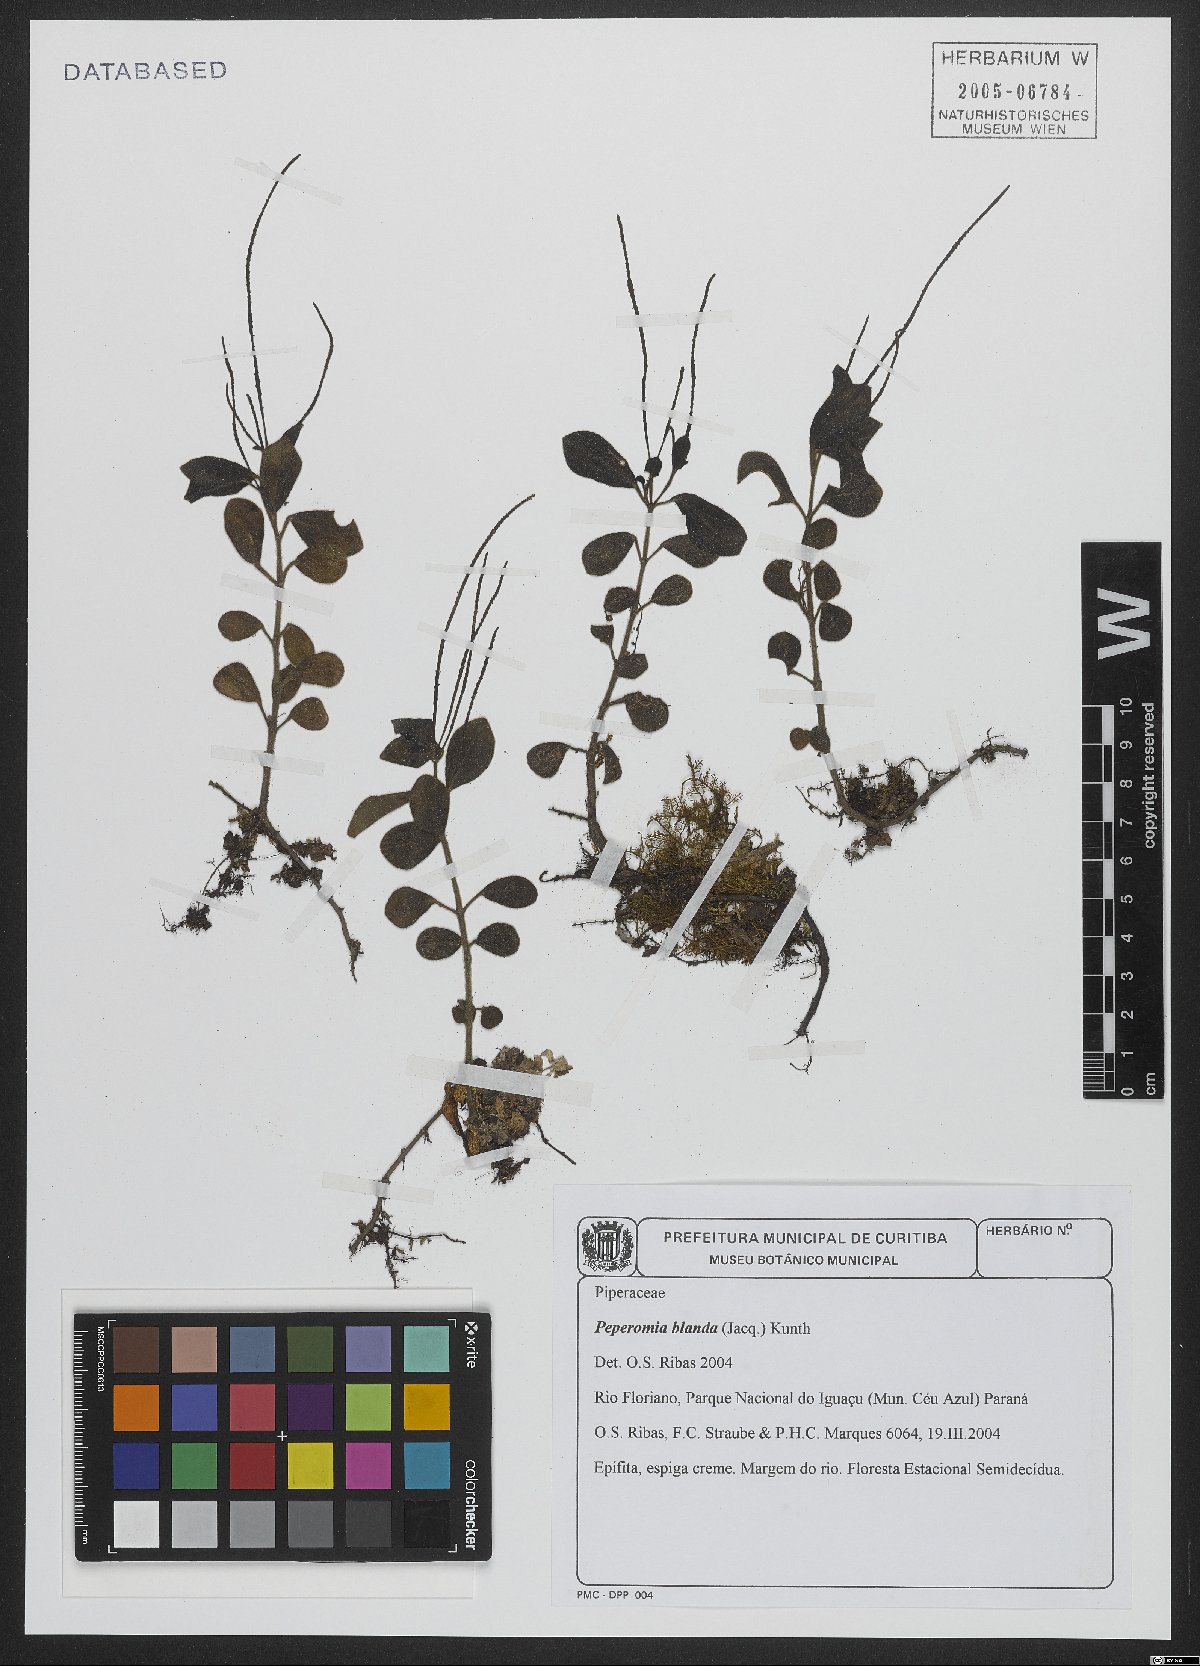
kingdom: Plantae
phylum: Tracheophyta
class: Magnoliopsida
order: Piperales
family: Piperaceae
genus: Peperomia
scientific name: Peperomia blanda
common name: Arid-land peperomia
